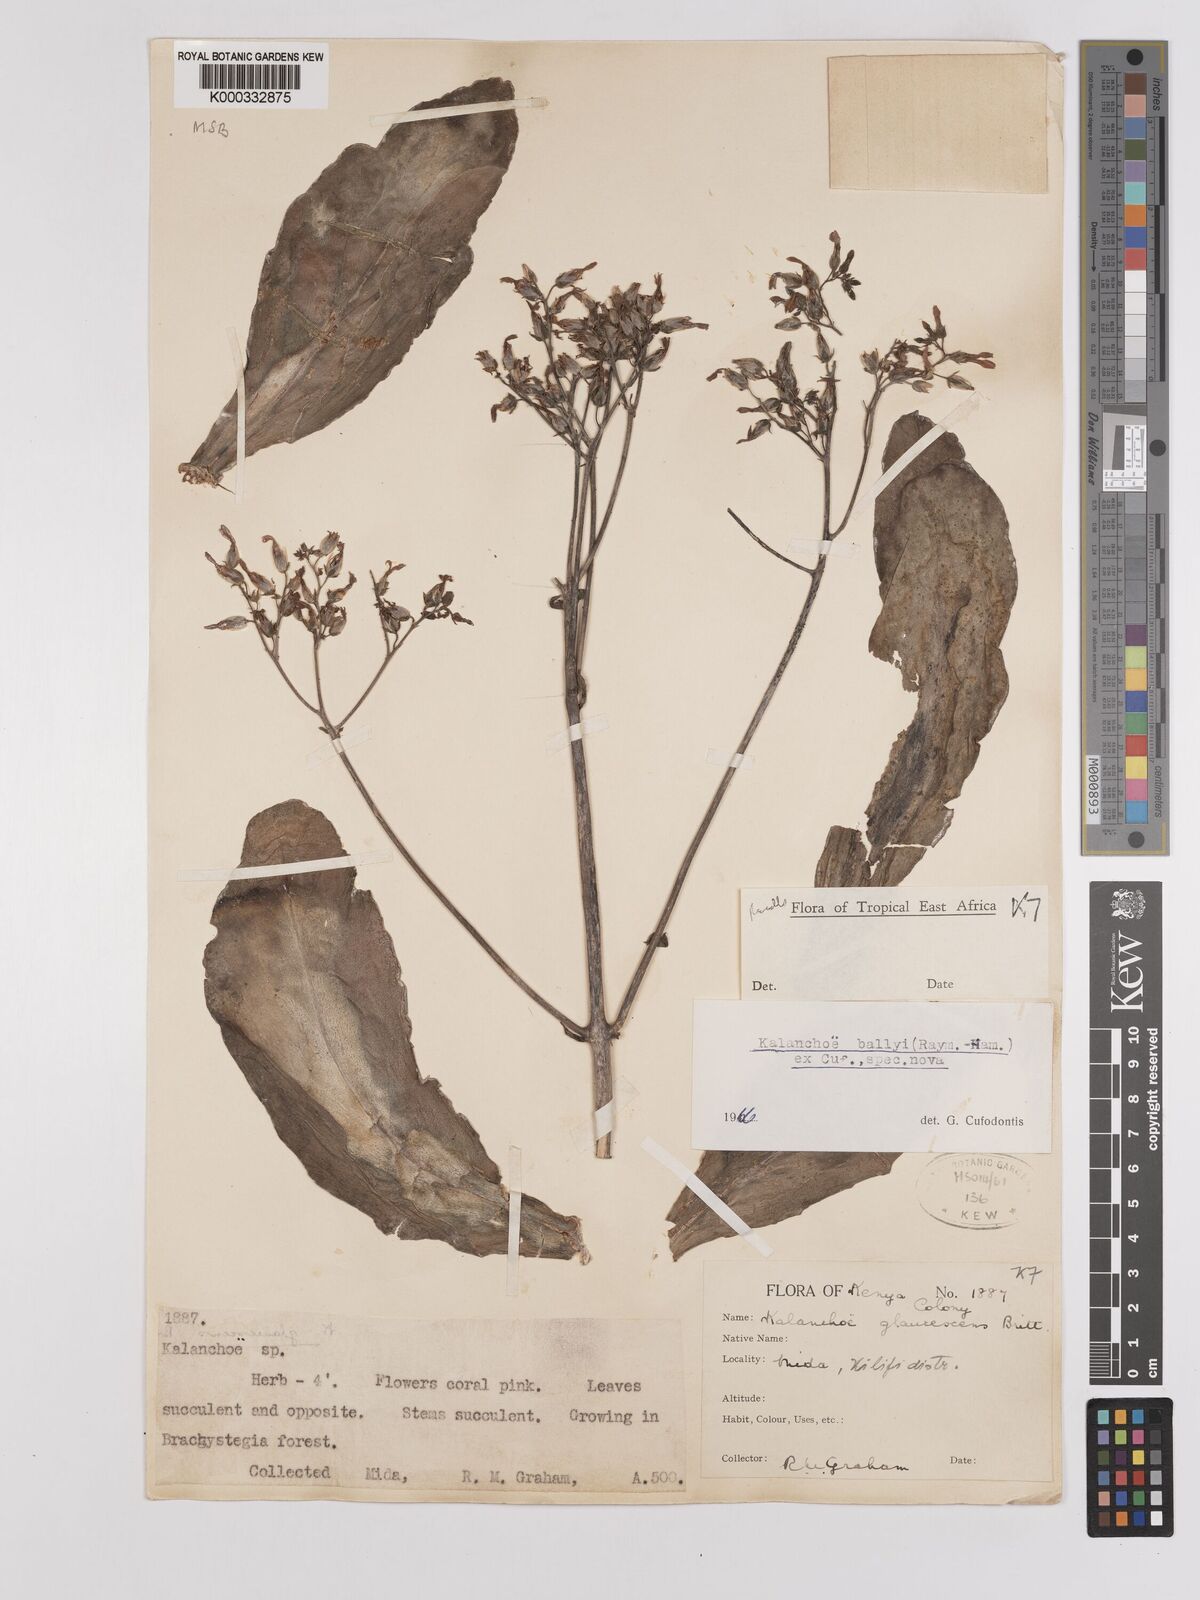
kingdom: Plantae
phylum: Tracheophyta
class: Magnoliopsida
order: Saxifragales
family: Crassulaceae
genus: Kalanchoe
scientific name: Kalanchoe ballyi
